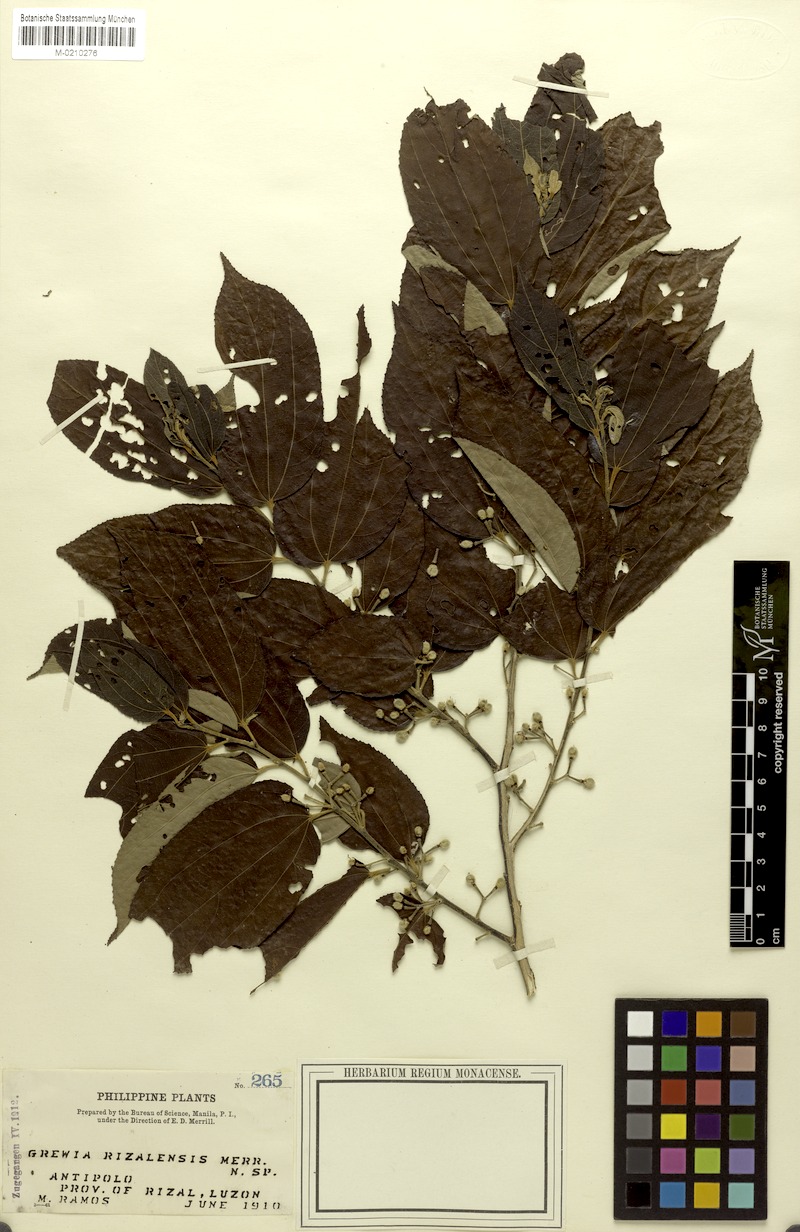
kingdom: Plantae
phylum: Tracheophyta
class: Magnoliopsida
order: Malvales
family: Malvaceae
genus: Grewia
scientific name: Grewia rizalensis
